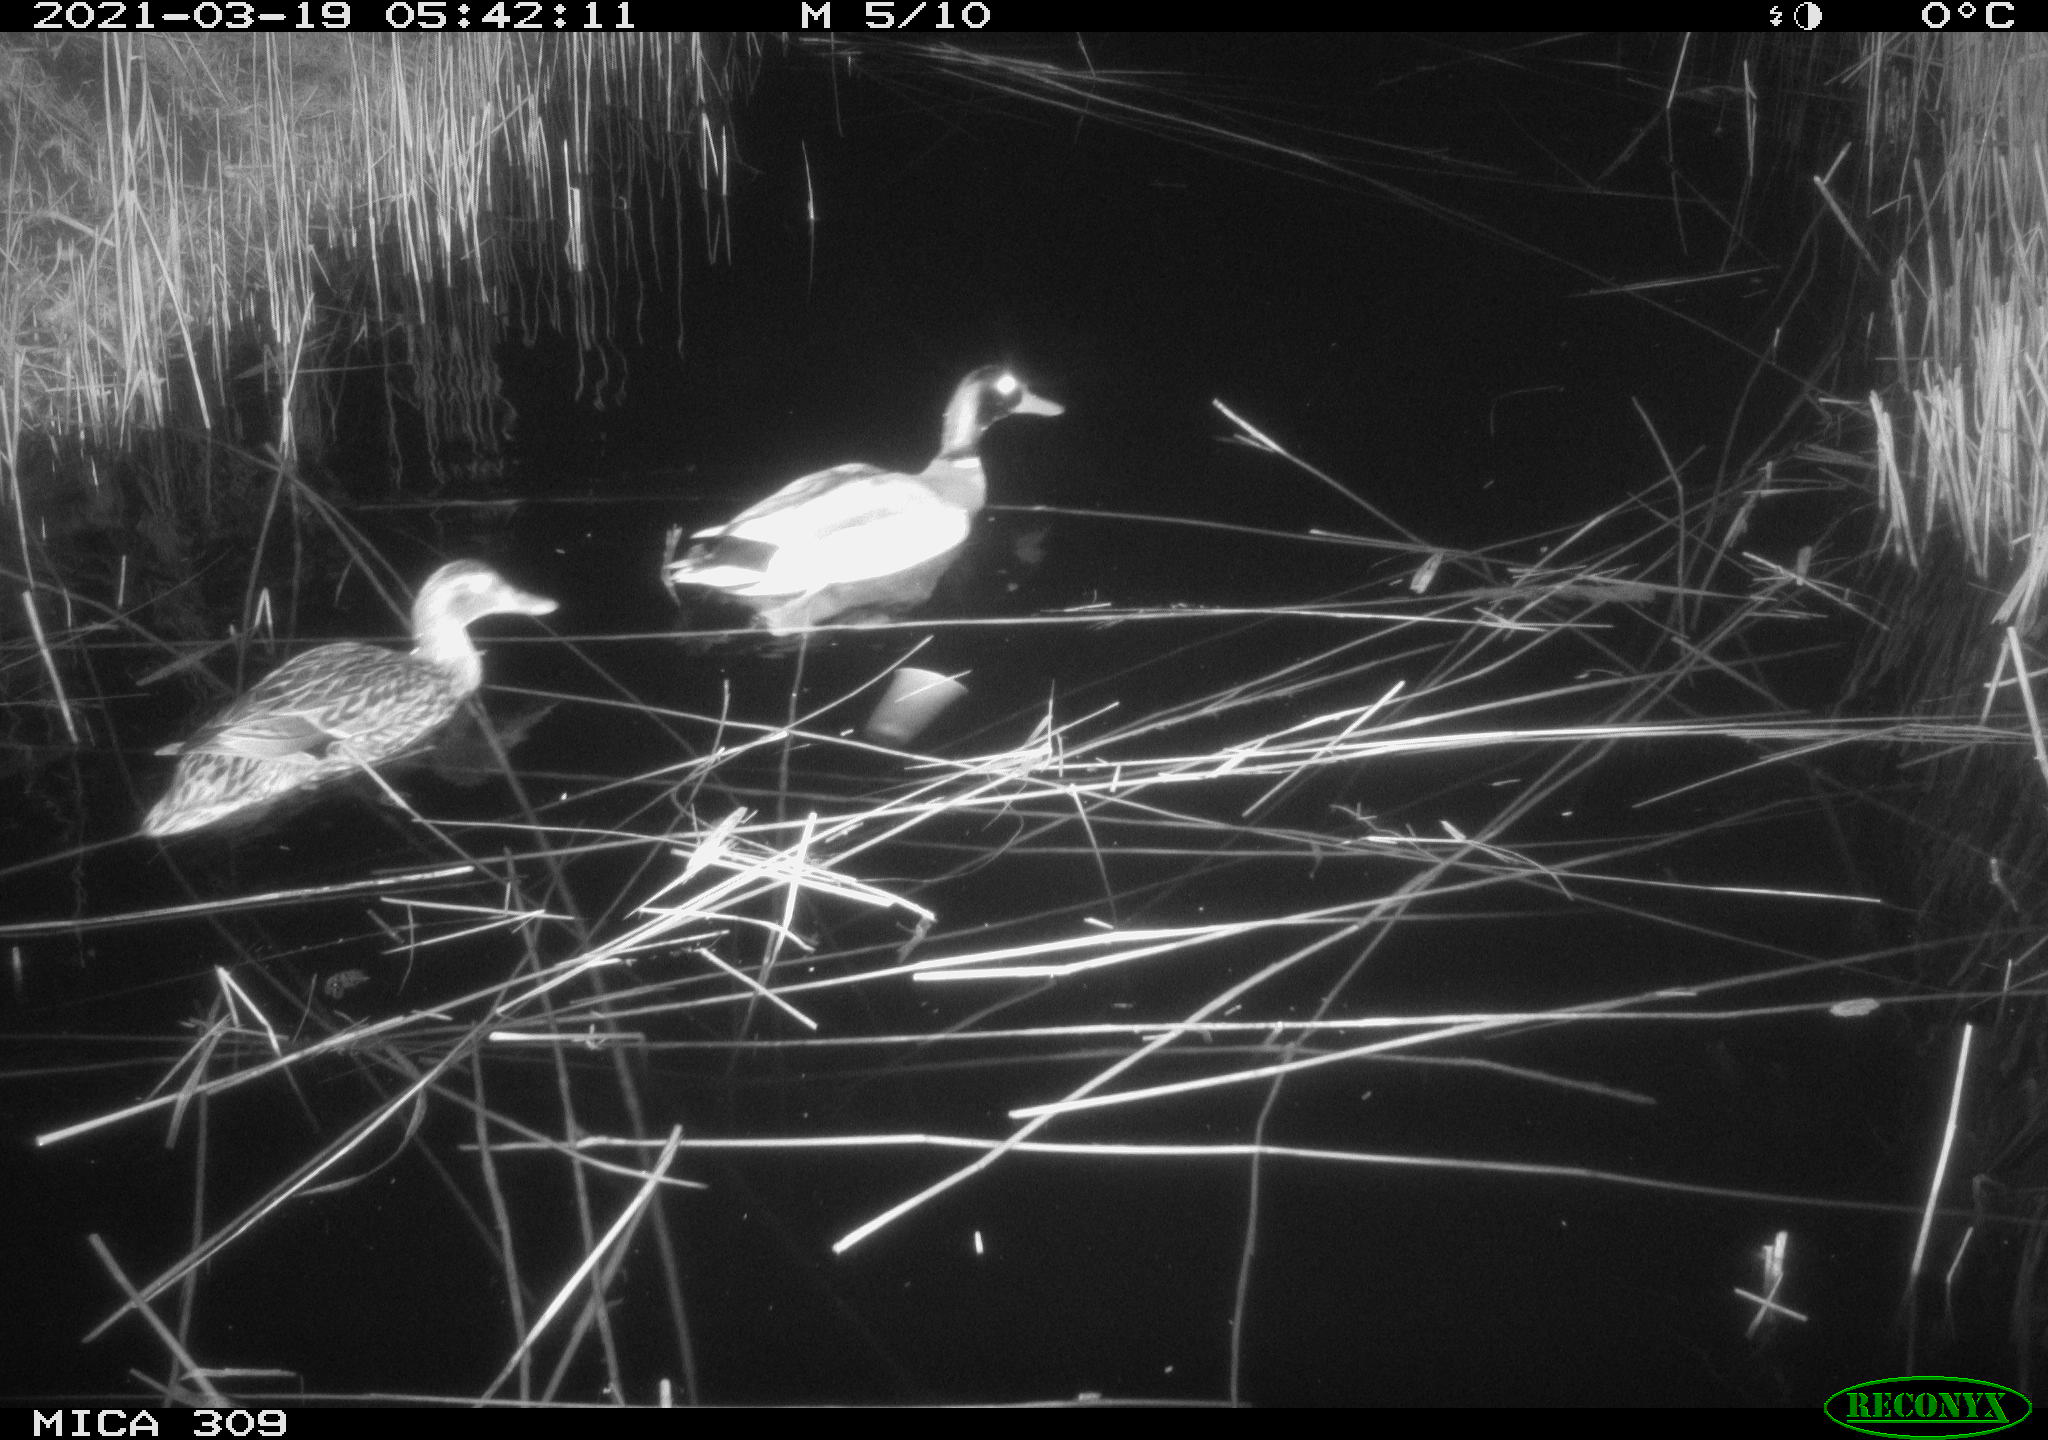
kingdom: Animalia
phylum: Chordata
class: Aves
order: Anseriformes
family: Anatidae
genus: Anas
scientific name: Anas platyrhynchos
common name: Mallard
